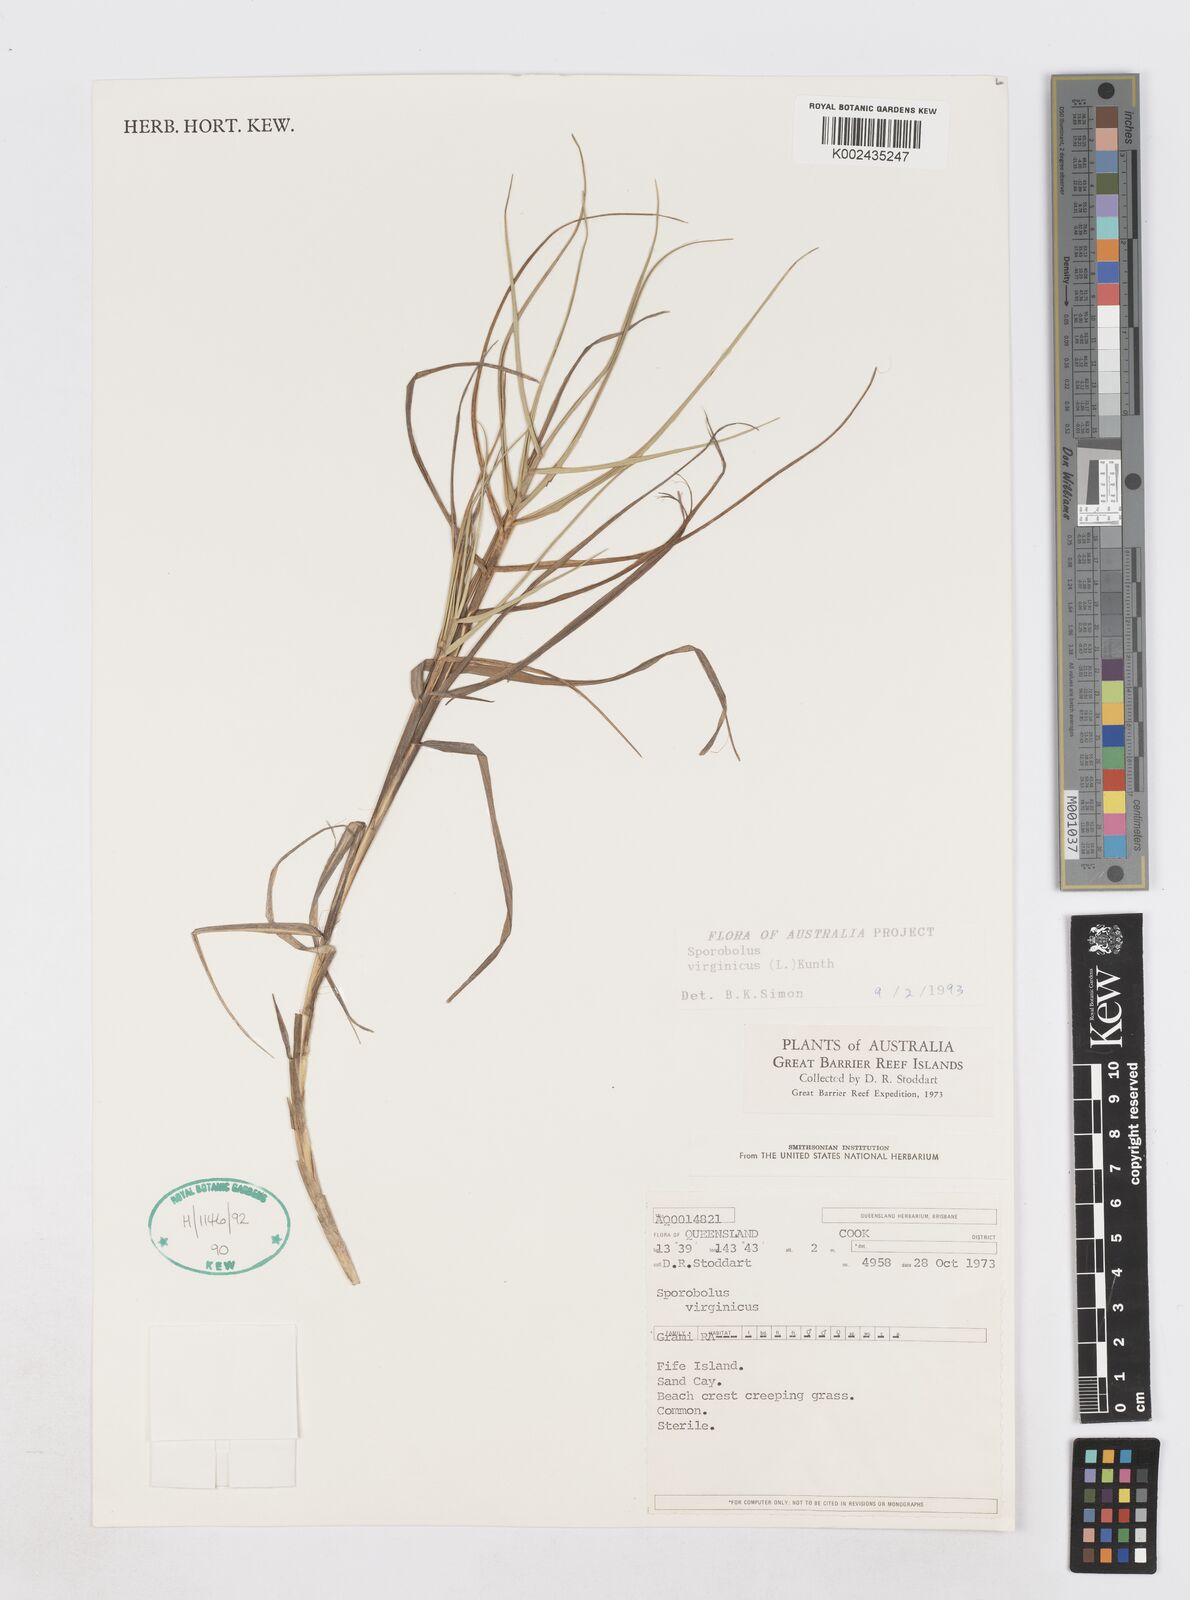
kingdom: Plantae
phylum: Tracheophyta
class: Liliopsida
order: Poales
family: Poaceae
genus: Sporobolus
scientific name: Sporobolus virginicus
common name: Beach dropseed
